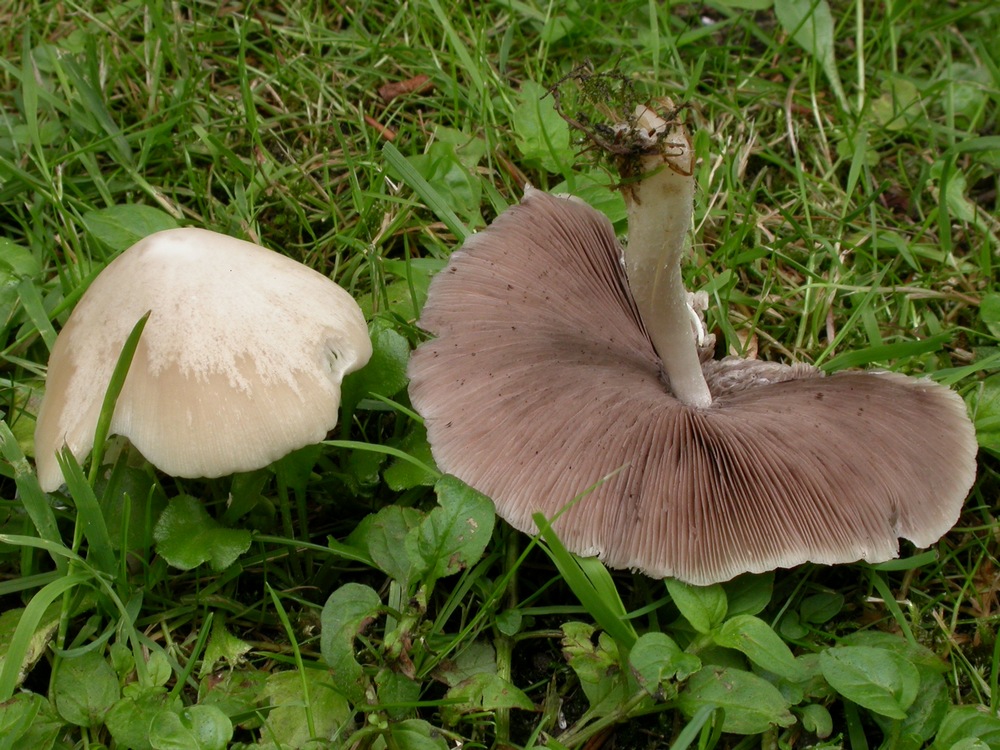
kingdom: Fungi
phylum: Basidiomycota
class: Agaricomycetes
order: Agaricales
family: Psathyrellaceae
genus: Candolleomyces
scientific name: Candolleomyces candolleanus
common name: Candolles mørkhat
